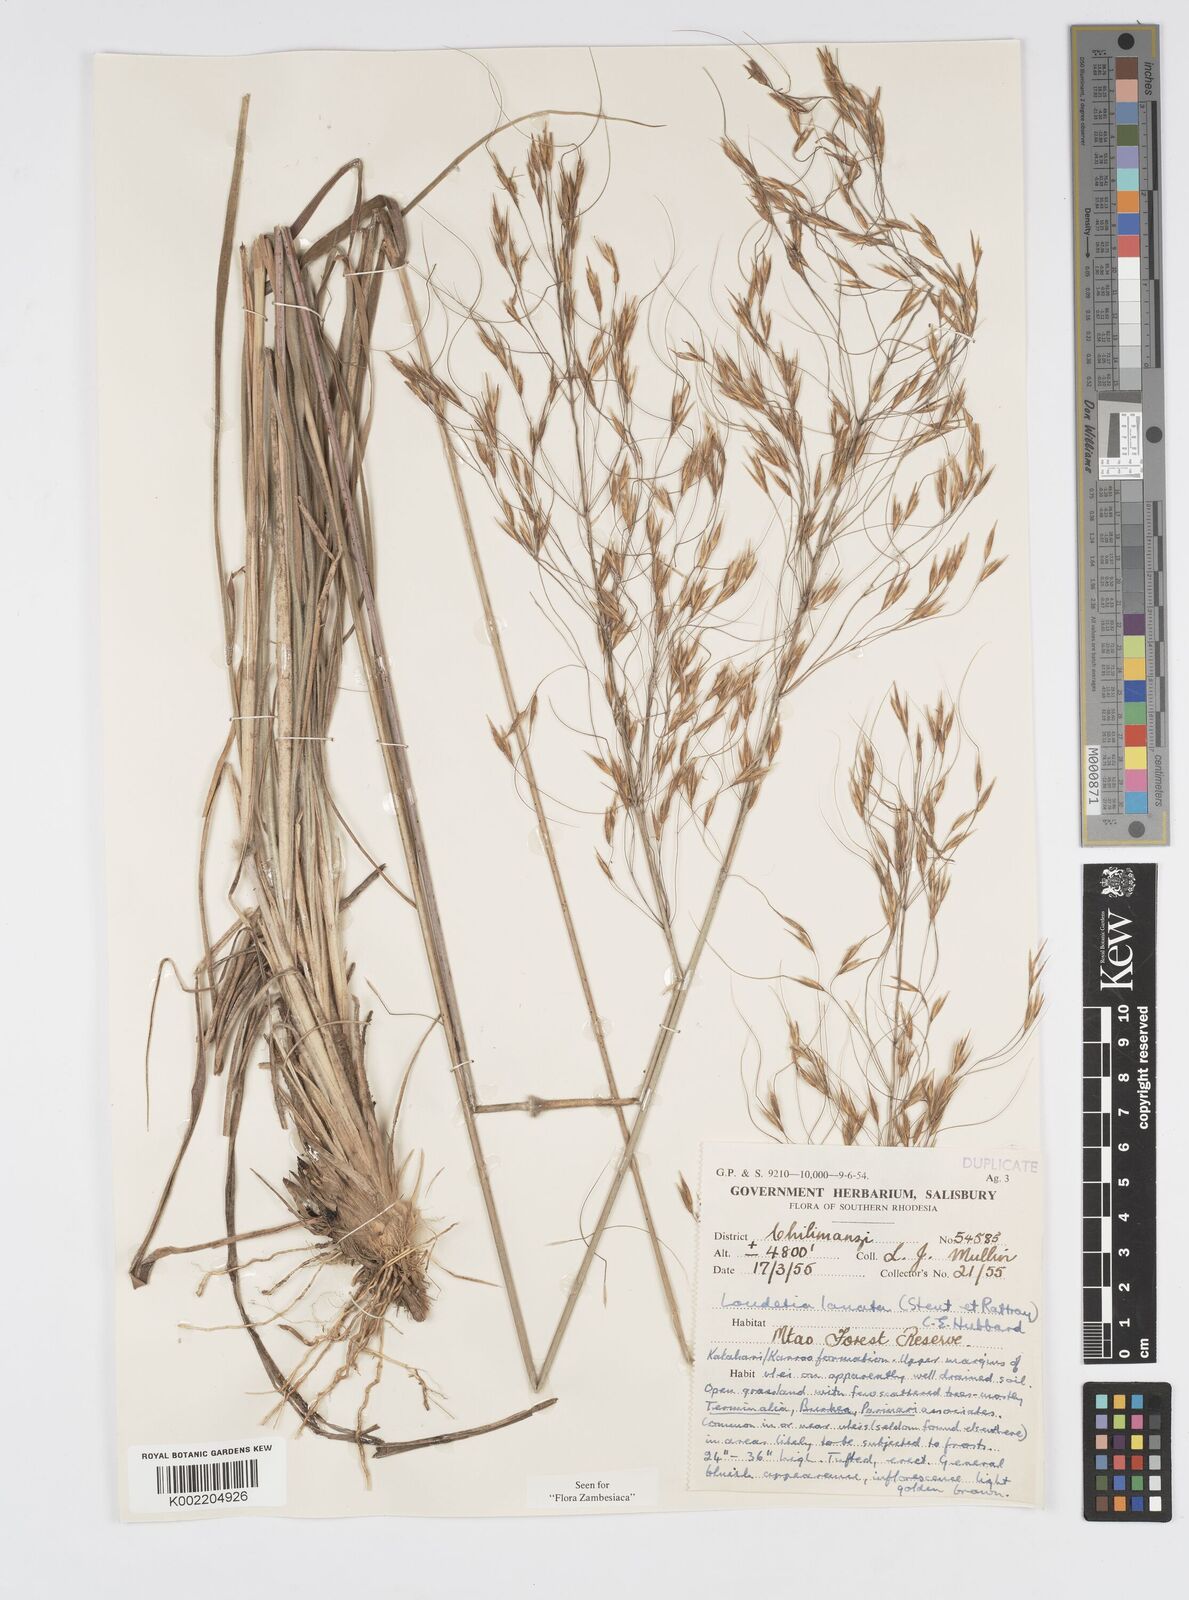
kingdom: Plantae
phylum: Tracheophyta
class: Liliopsida
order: Poales
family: Poaceae
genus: Loudetia
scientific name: Loudetia lanata
